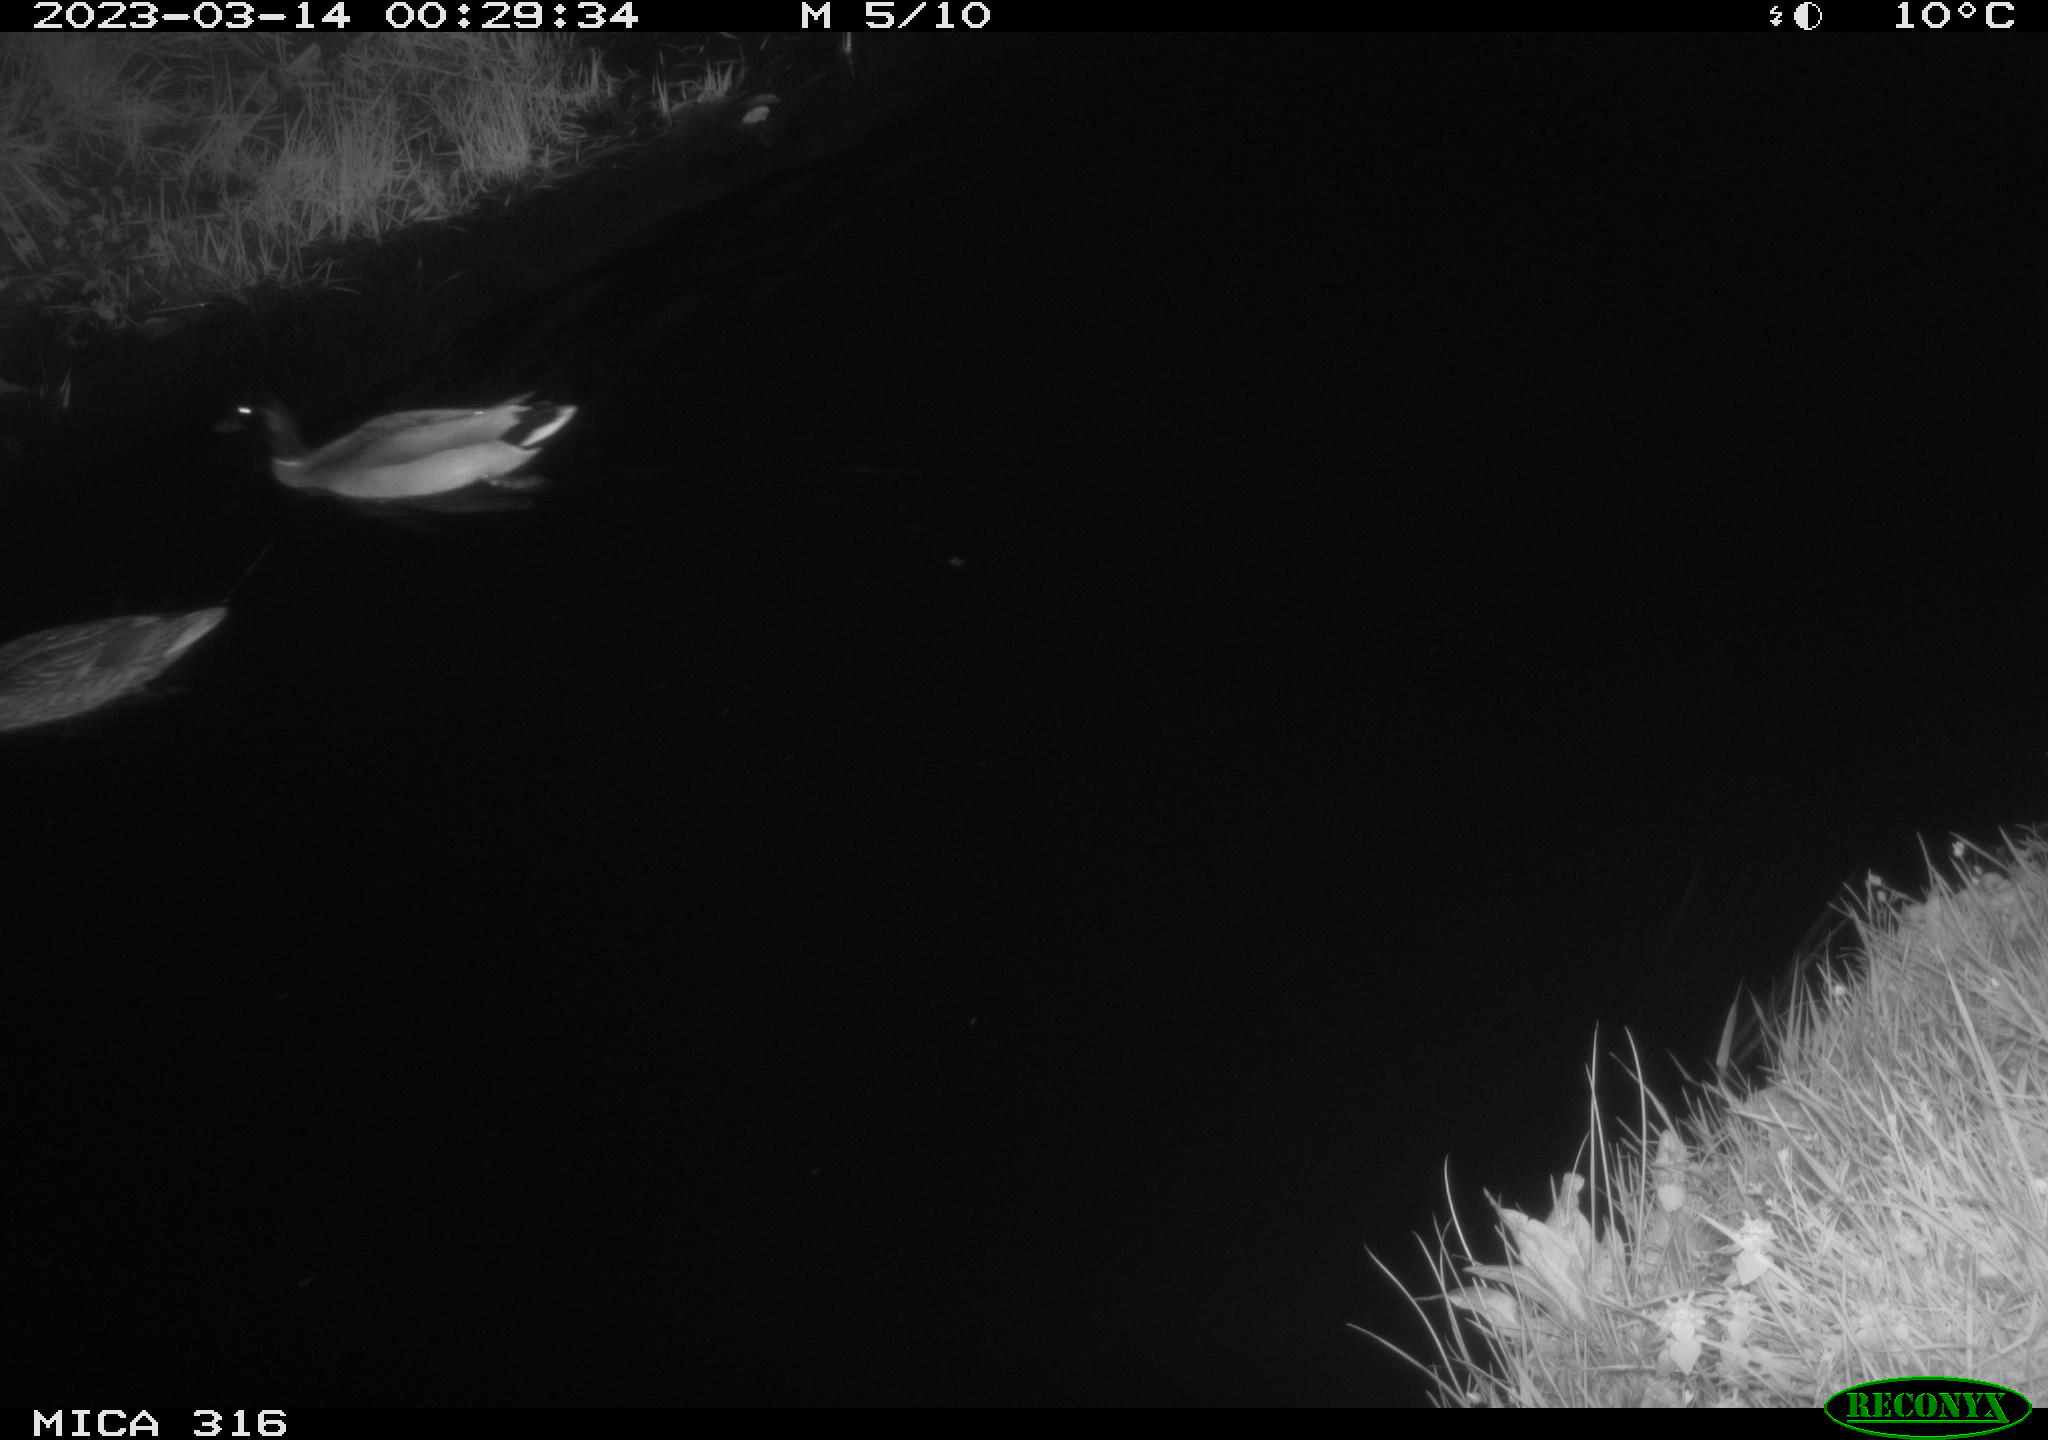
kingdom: Animalia
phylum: Chordata
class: Aves
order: Anseriformes
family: Anatidae
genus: Anas
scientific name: Anas
